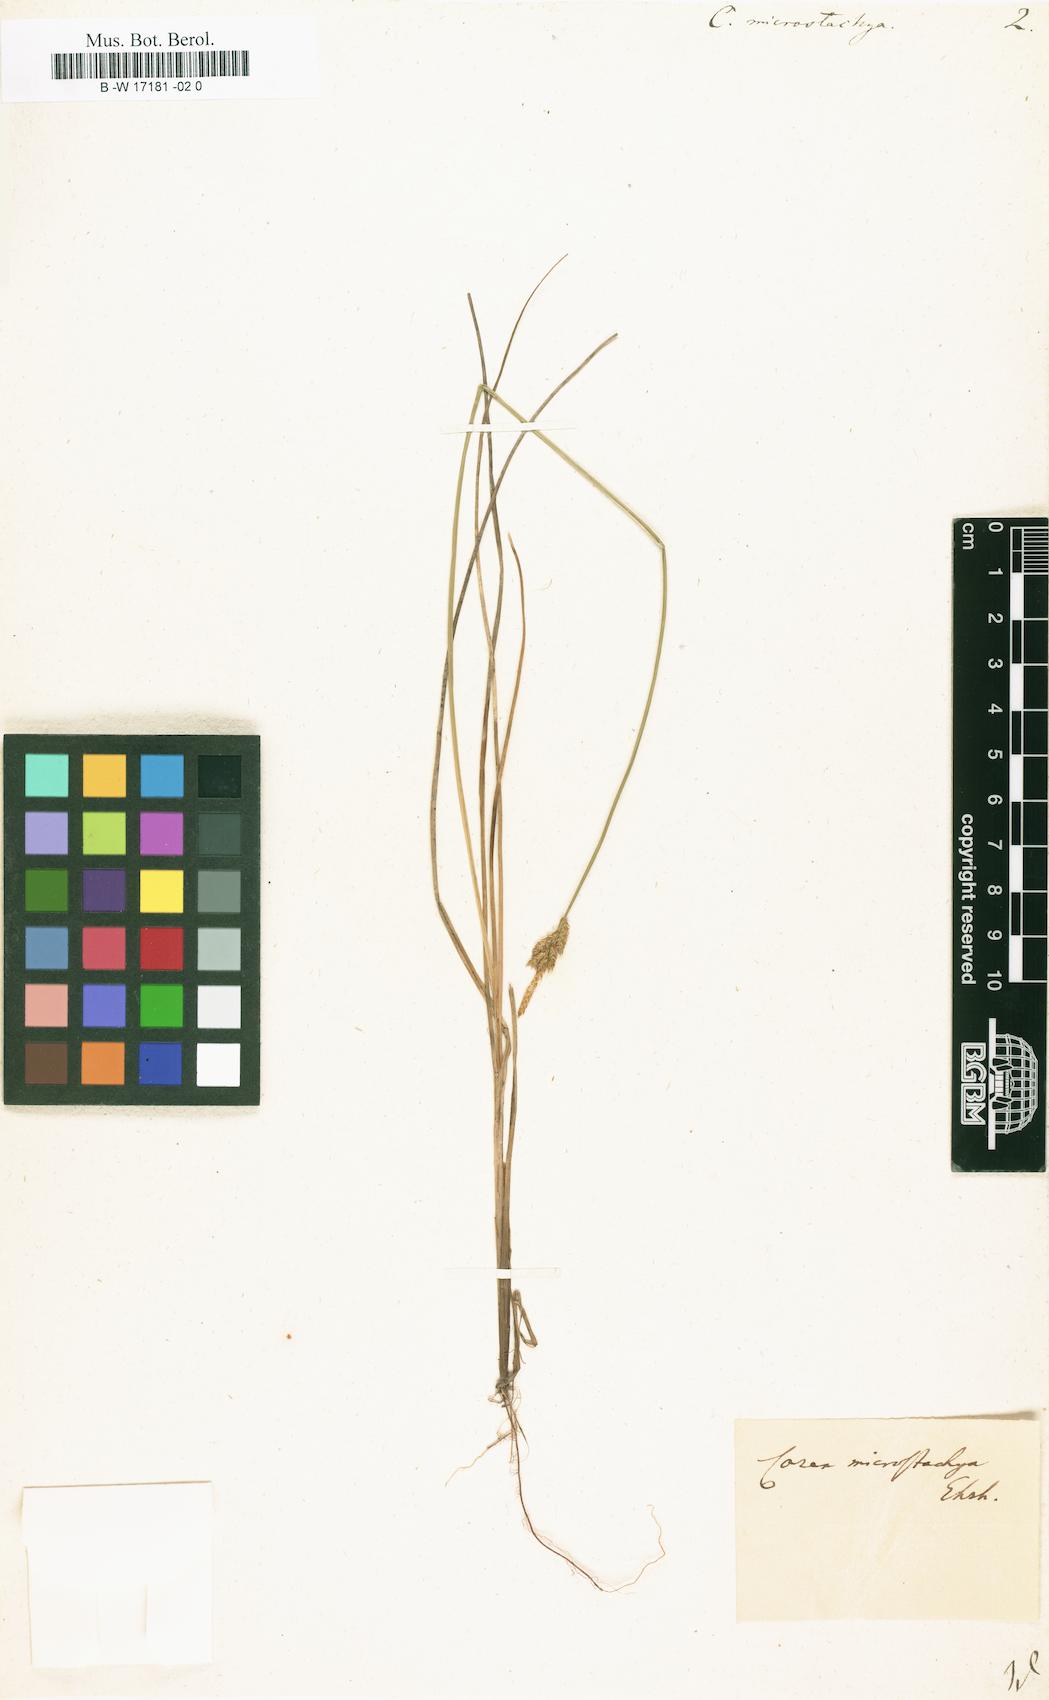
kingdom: Plantae
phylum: Tracheophyta
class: Liliopsida
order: Poales
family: Cyperaceae
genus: Carex
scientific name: Carex microstachya
